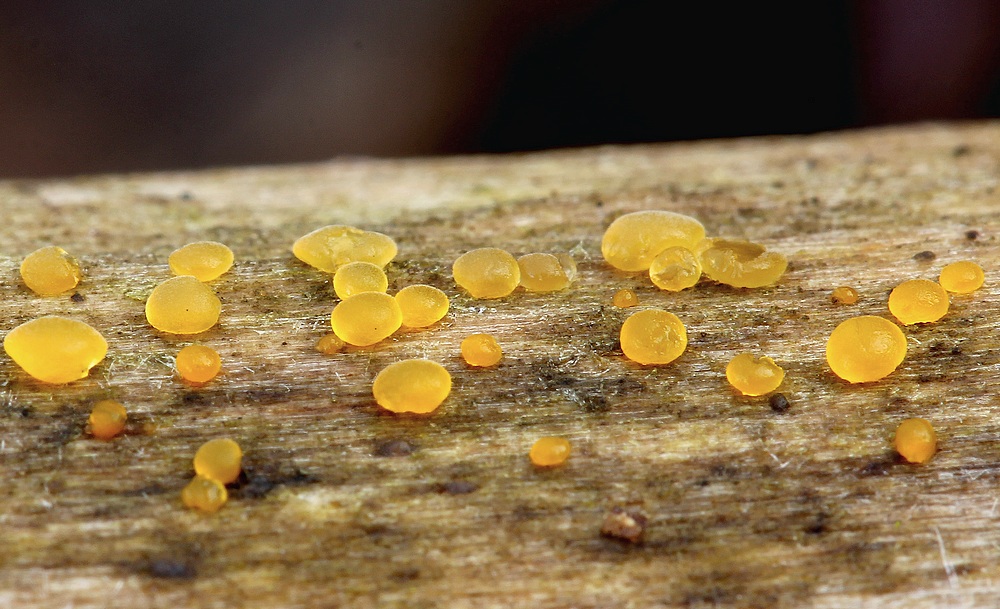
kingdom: Fungi
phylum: Basidiomycota
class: Dacrymycetes
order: Dacrymycetales
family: Dacrymycetaceae
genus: Dacrymyces
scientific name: Dacrymyces
